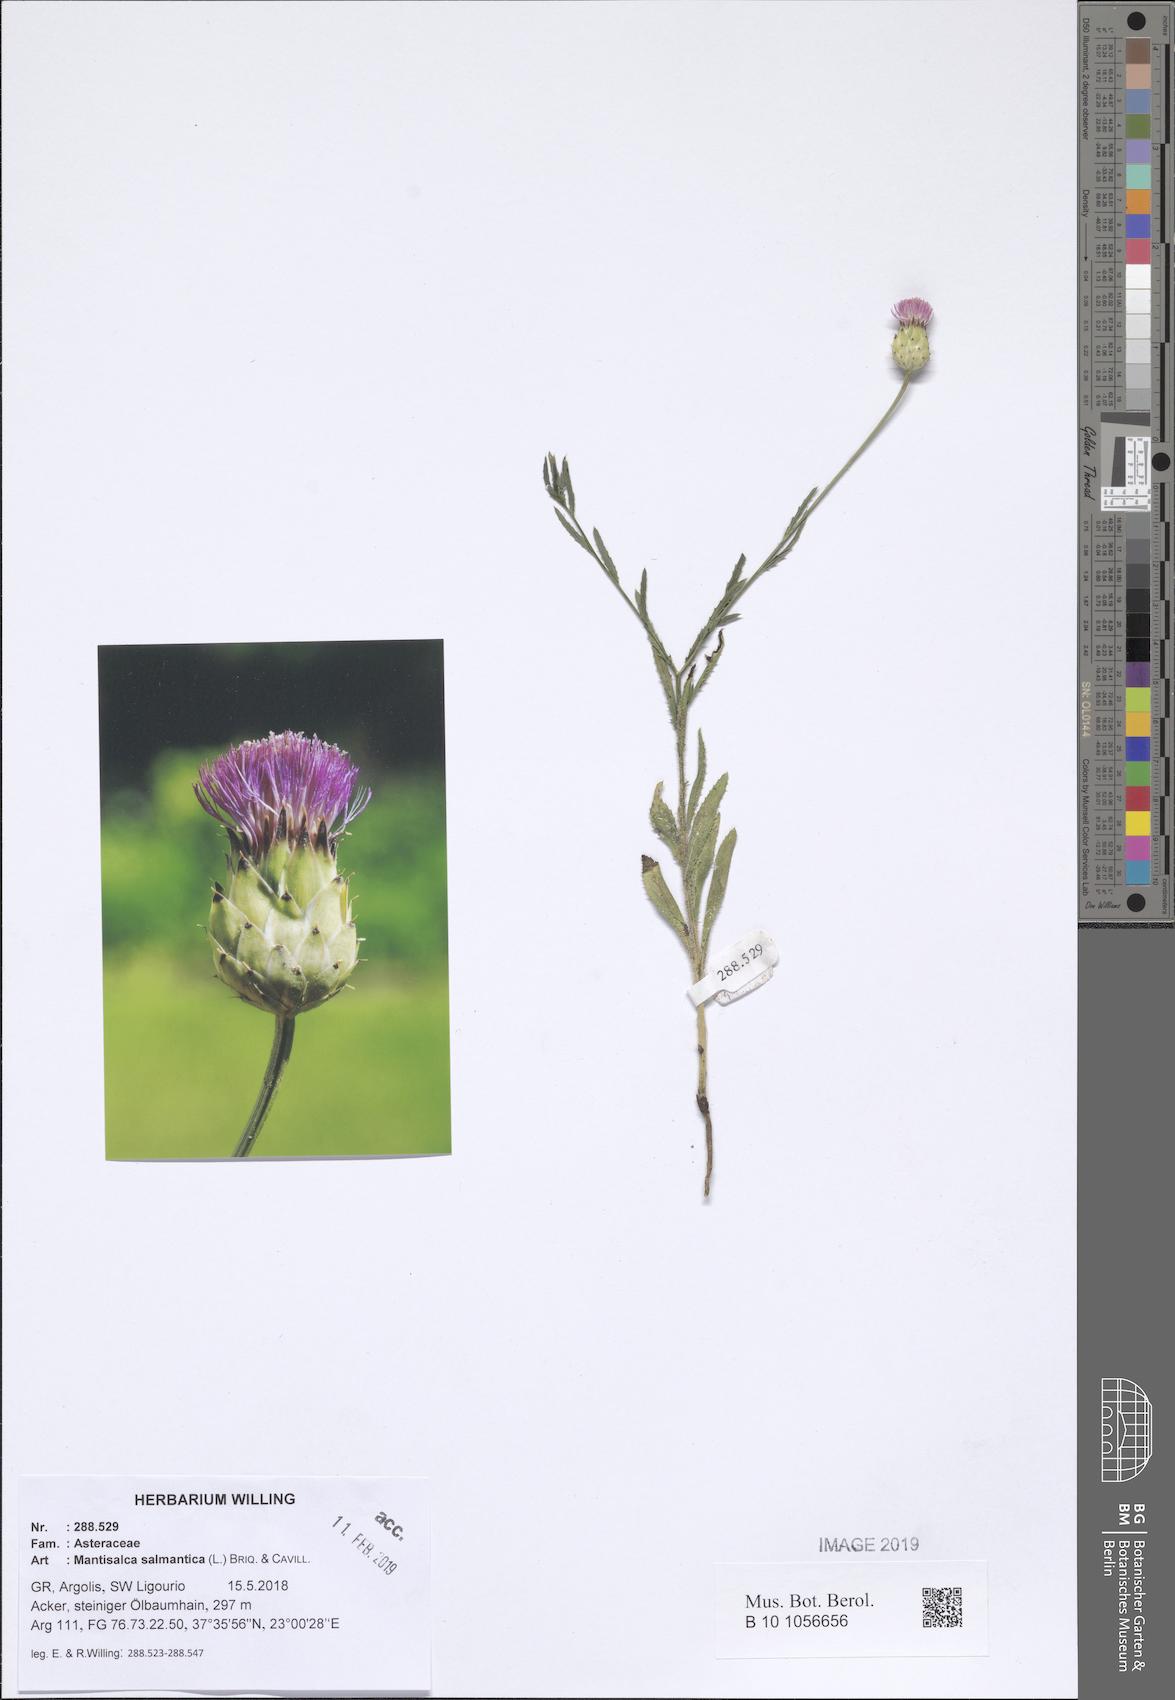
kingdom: Plantae
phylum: Tracheophyta
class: Magnoliopsida
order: Asterales
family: Asteraceae
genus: Mantisalca
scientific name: Mantisalca salmantica
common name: Dagger flower
